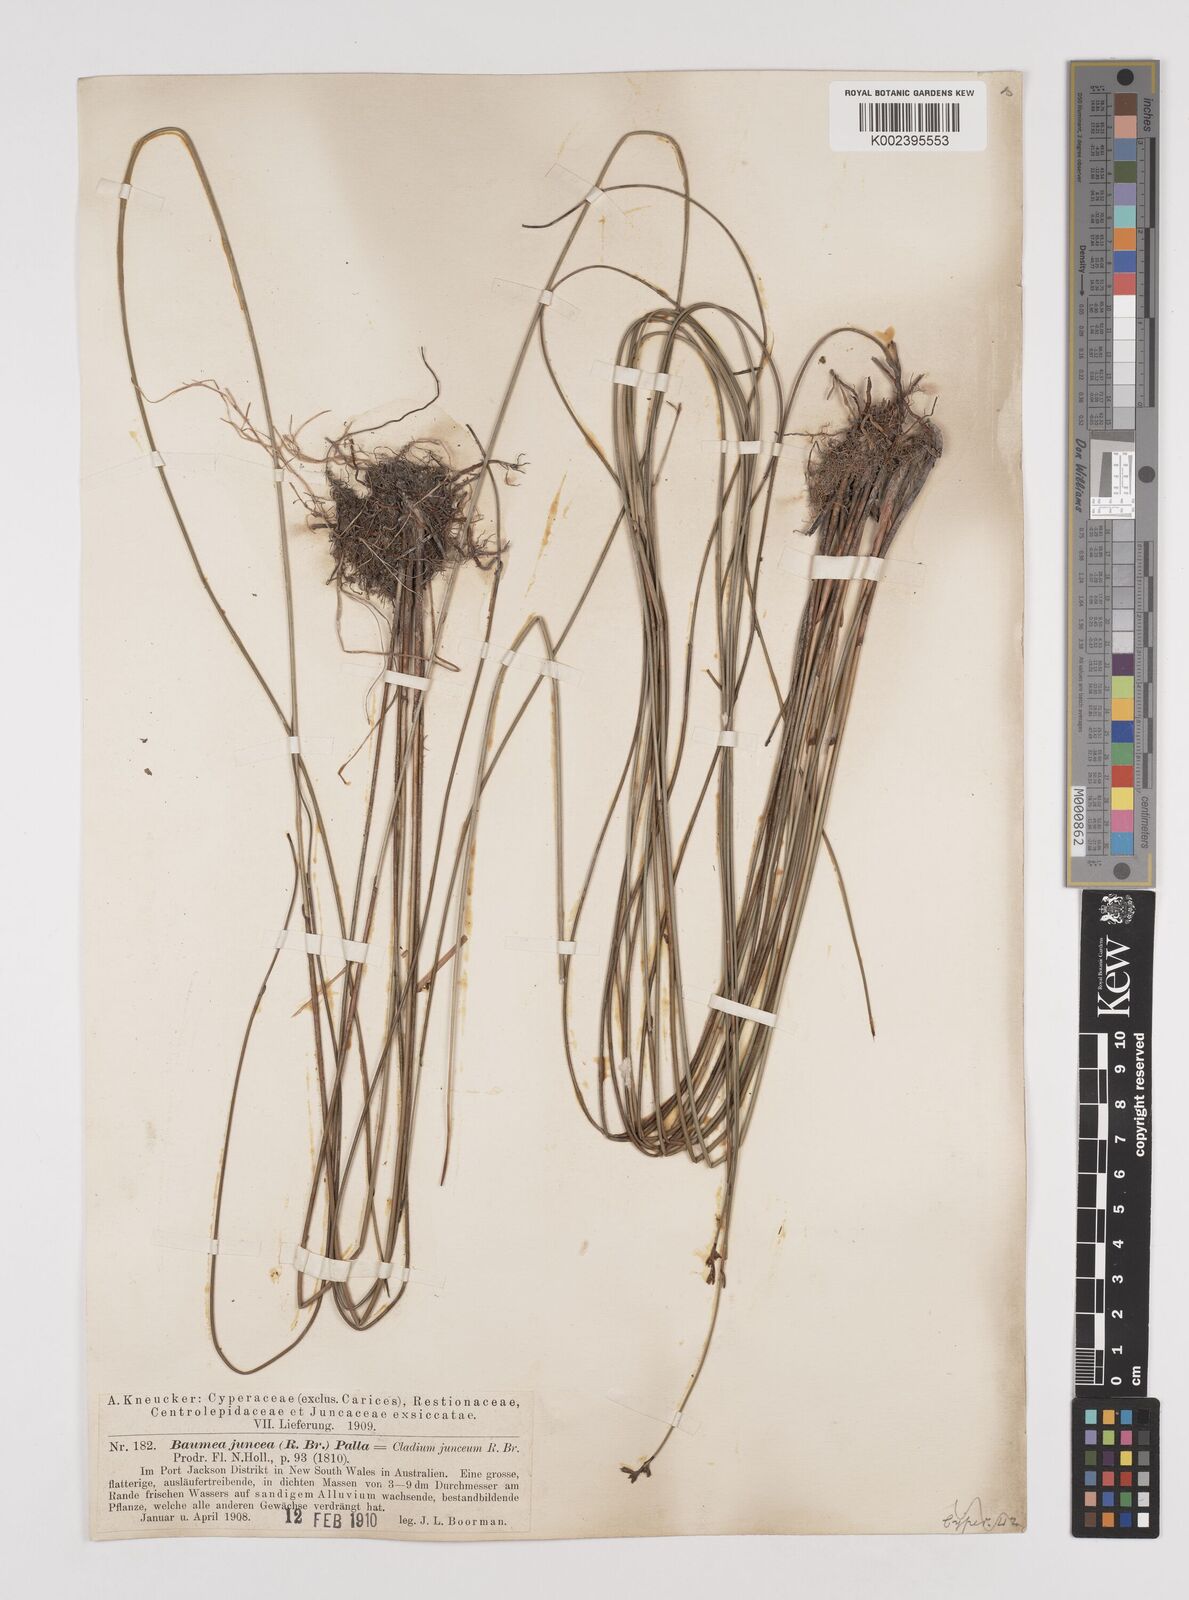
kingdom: Plantae
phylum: Tracheophyta
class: Liliopsida
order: Poales
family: Cyperaceae
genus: Machaerina
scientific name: Machaerina juncea
